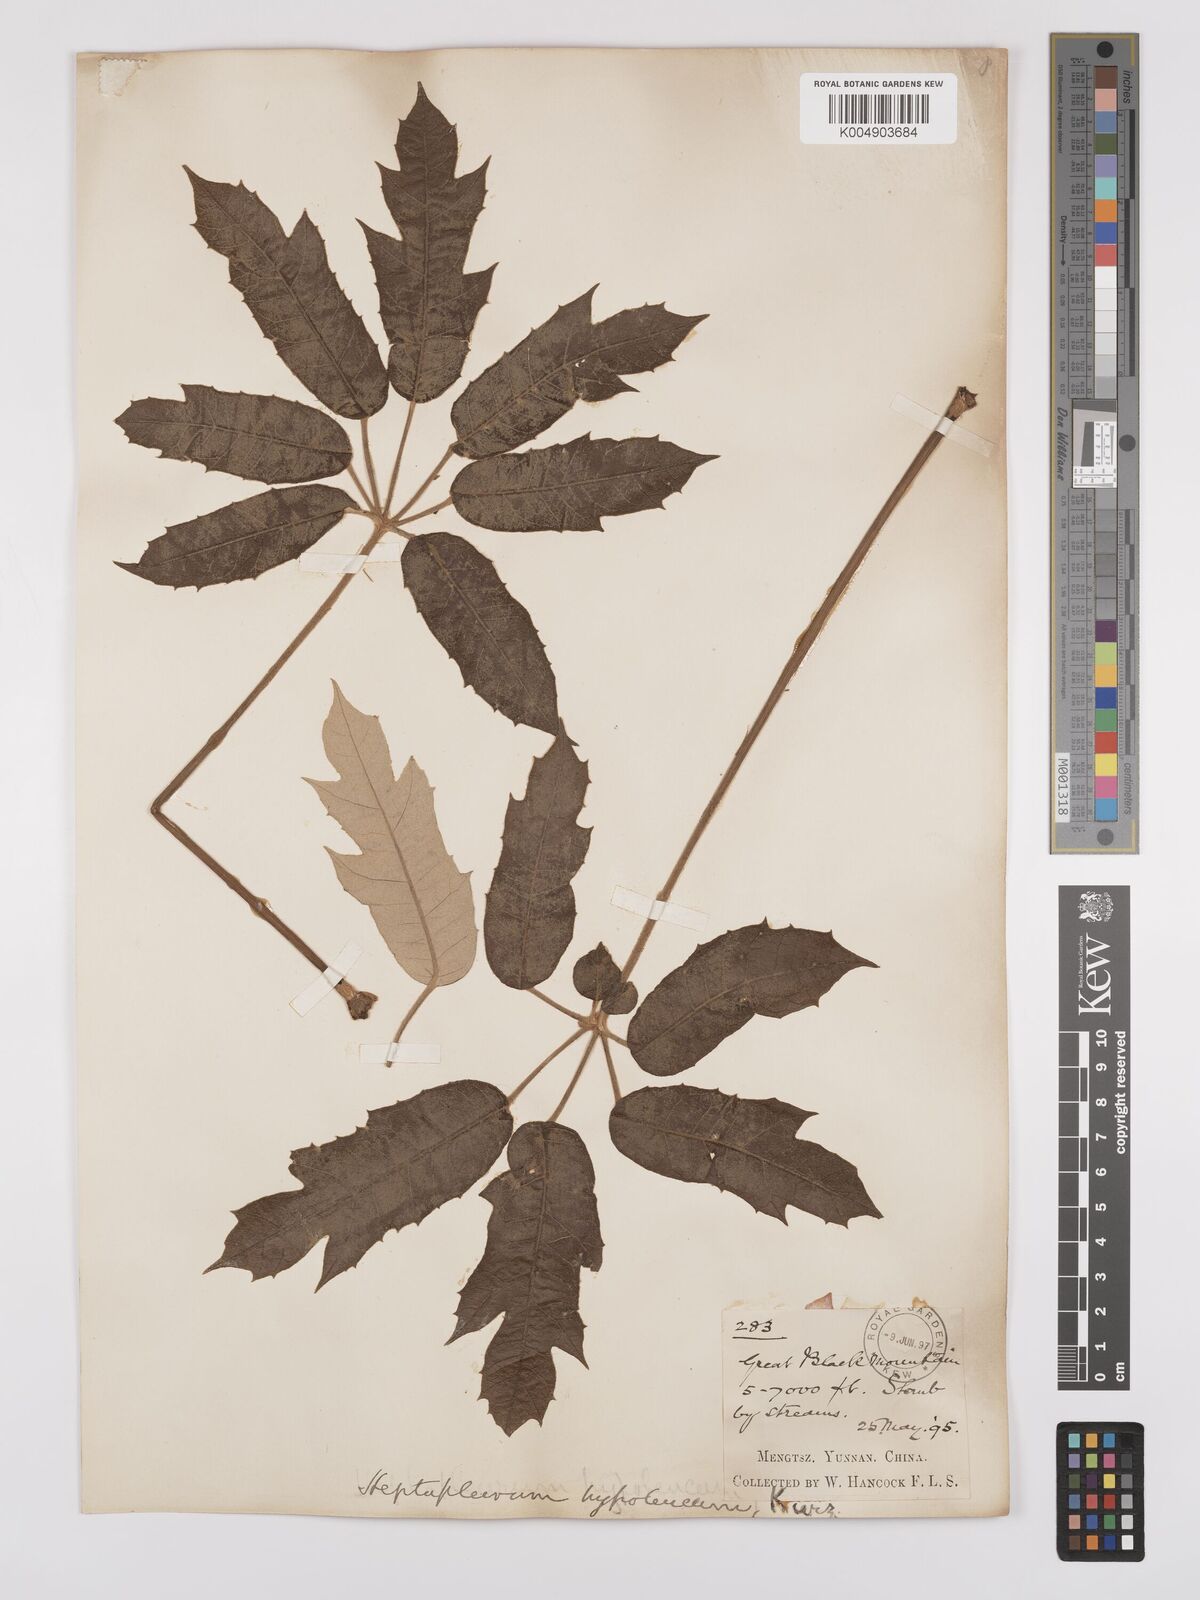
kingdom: Plantae
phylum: Tracheophyta
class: Magnoliopsida
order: Apiales
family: Araliaceae
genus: Heptapleurum
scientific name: Heptapleurum delavayi
